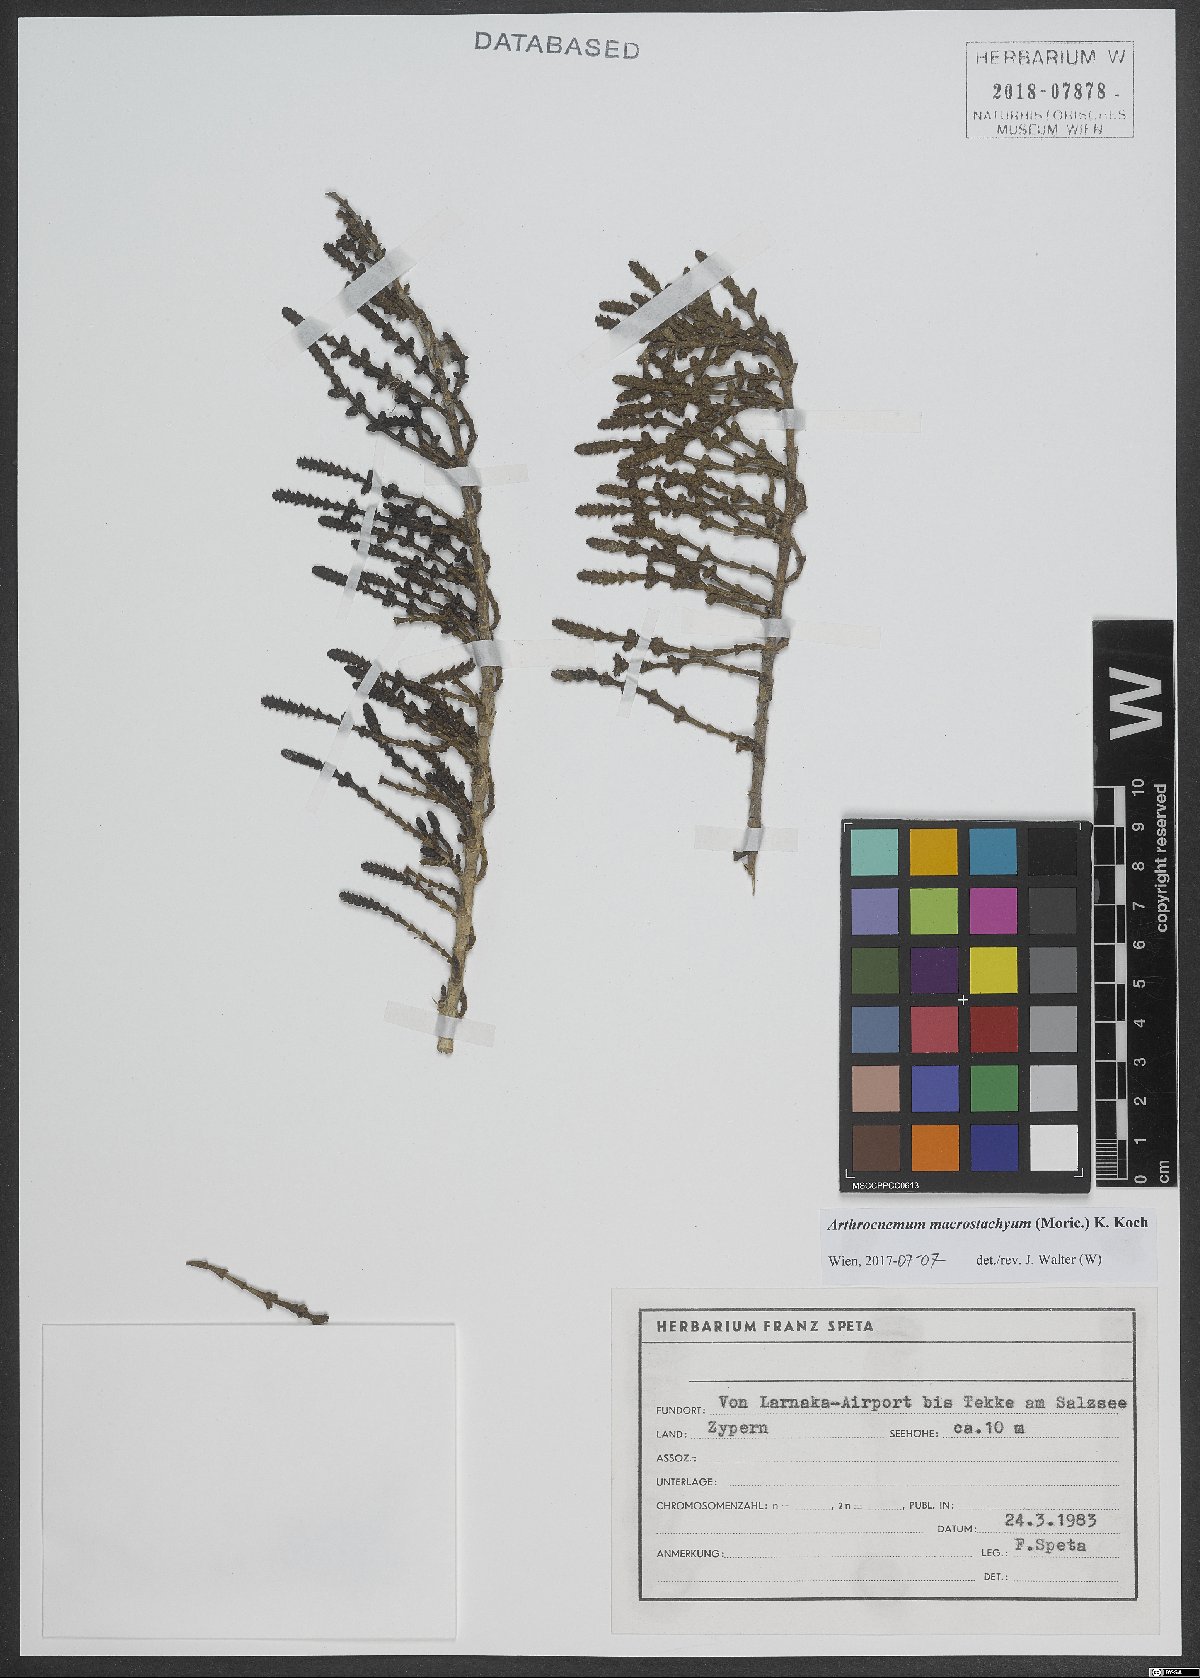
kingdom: Plantae
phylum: Tracheophyta
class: Magnoliopsida
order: Caryophyllales
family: Amaranthaceae
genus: Arthrocaulon
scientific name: Arthrocaulon macrostachyum
